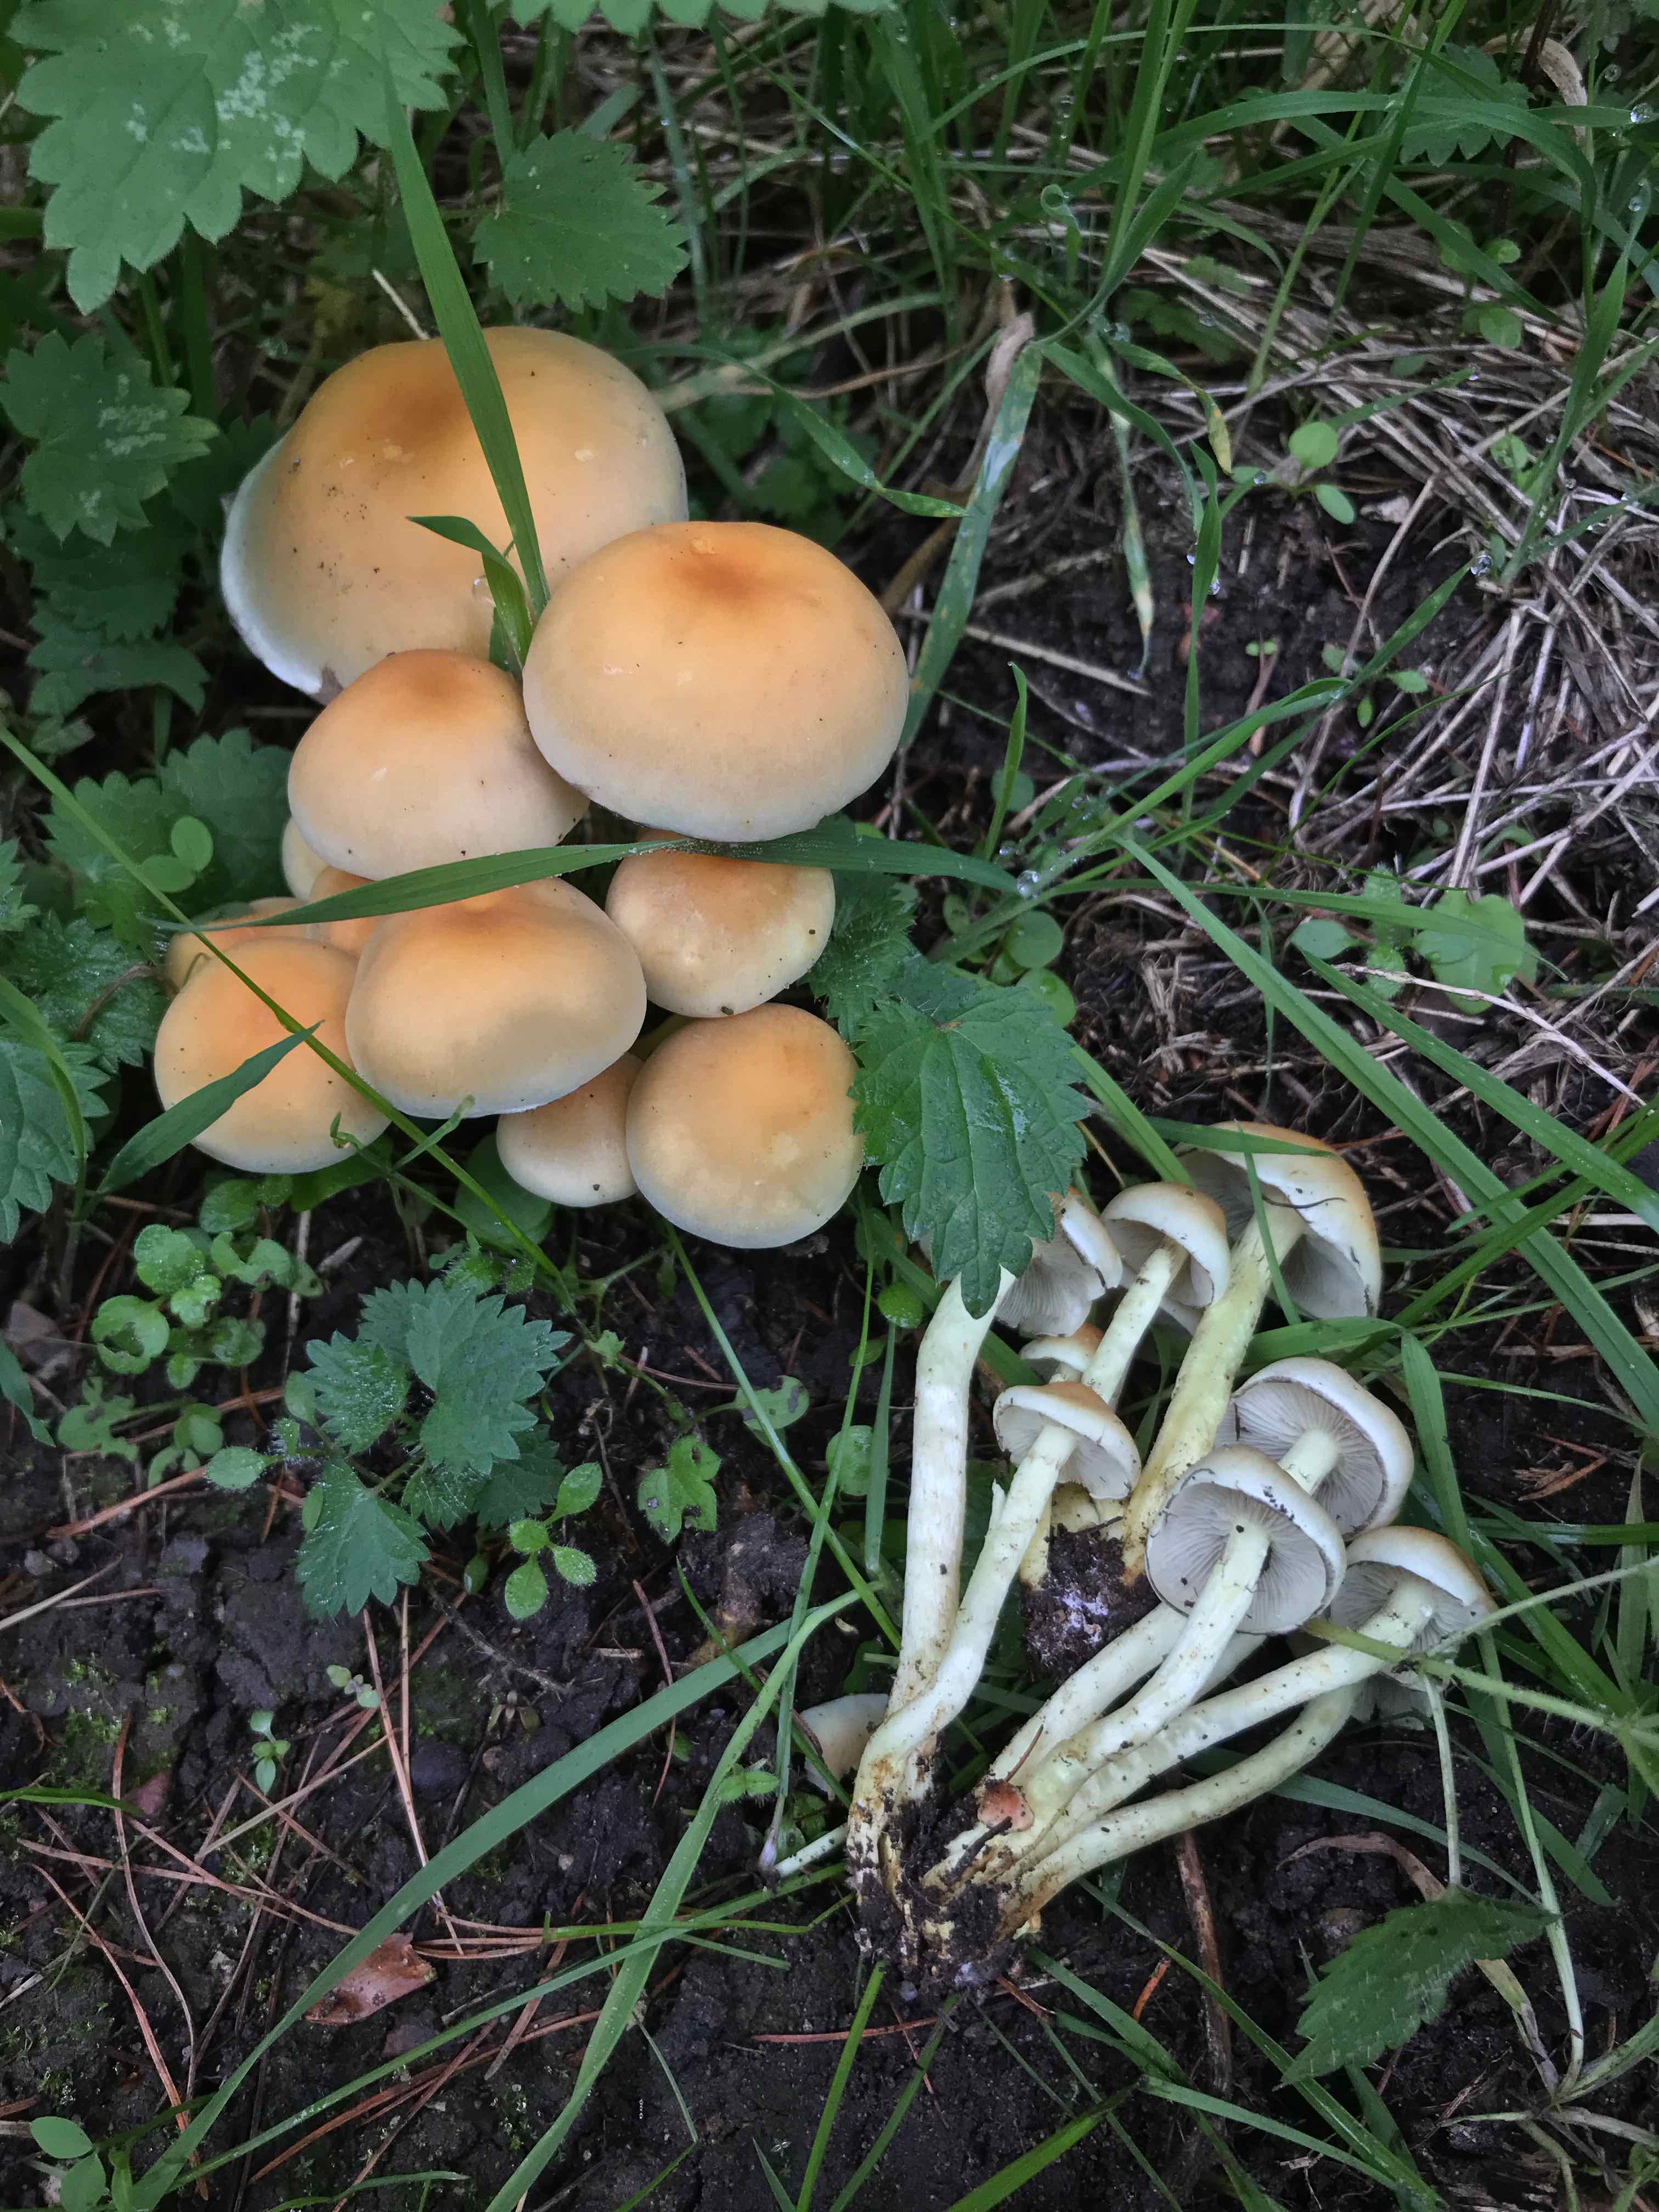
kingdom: Fungi
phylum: Basidiomycota
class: Agaricomycetes
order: Agaricales
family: Strophariaceae
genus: Hypholoma
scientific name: Hypholoma fasciculare
